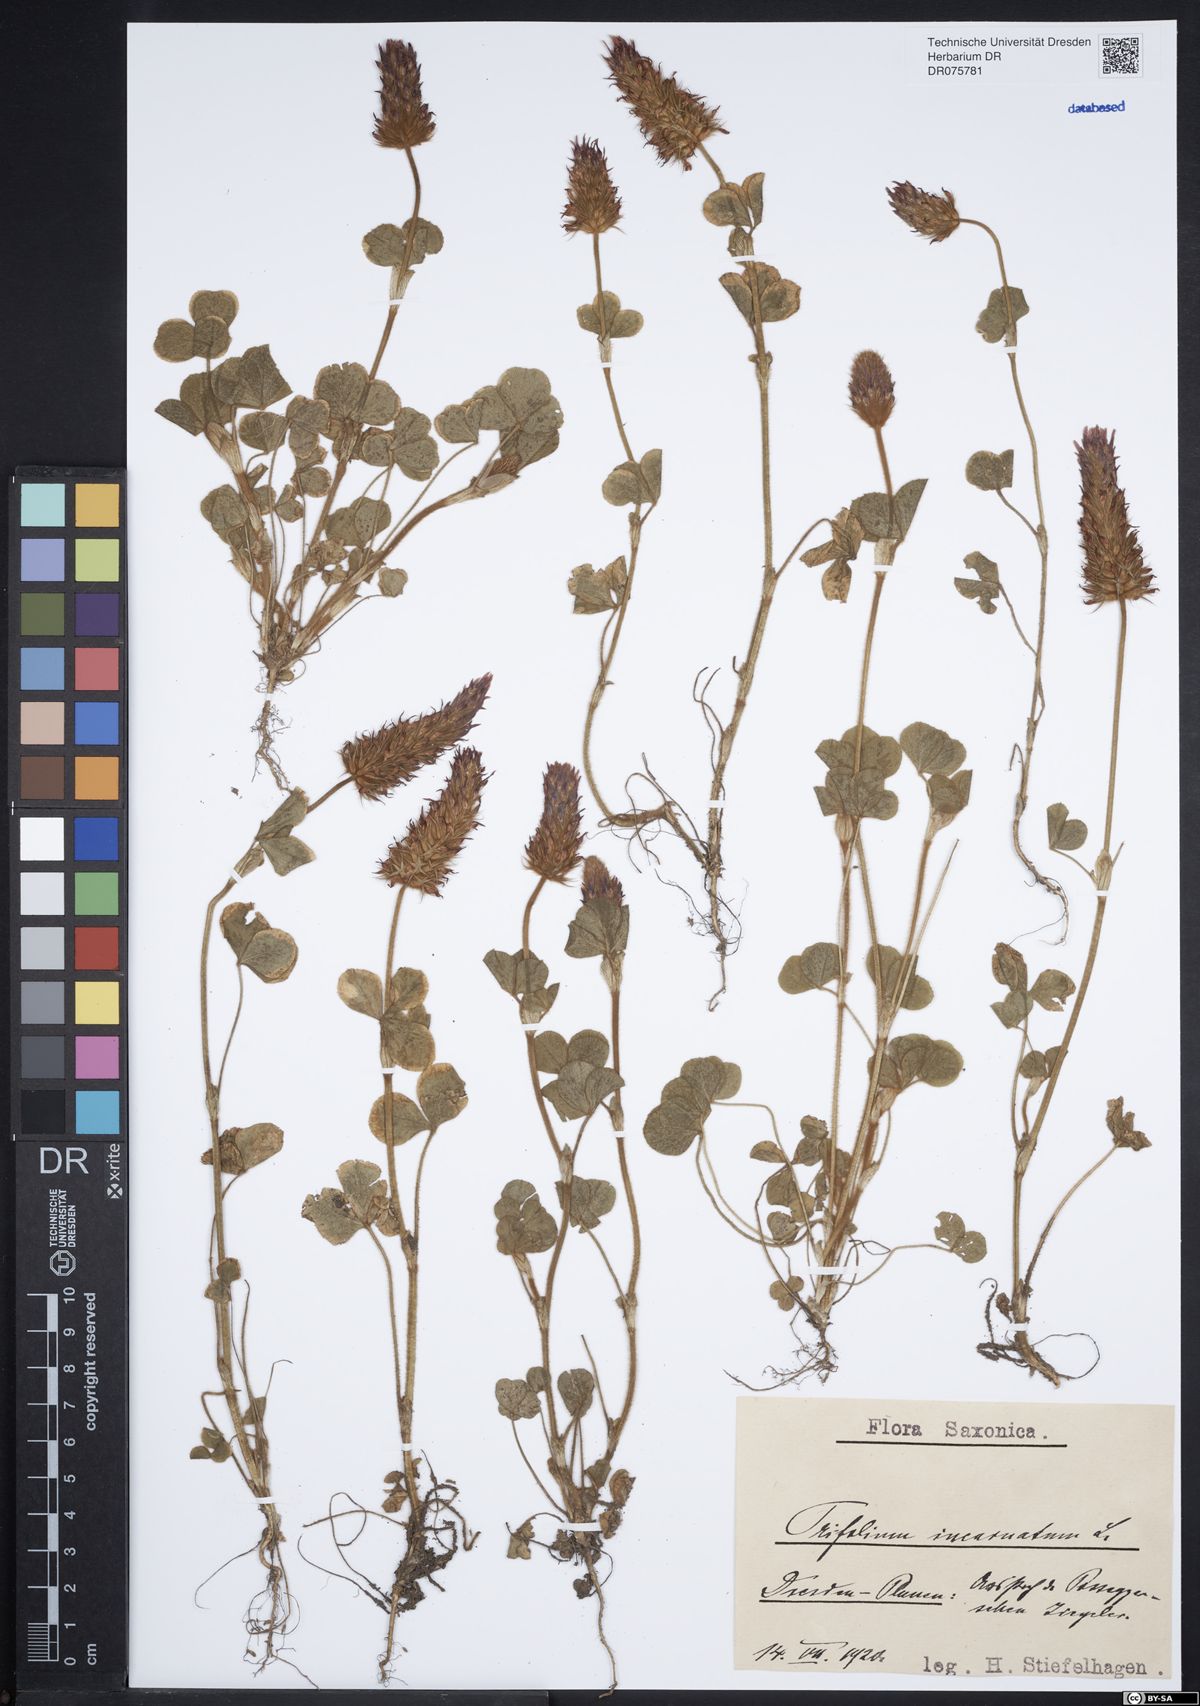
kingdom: Plantae
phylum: Tracheophyta
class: Magnoliopsida
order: Fabales
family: Fabaceae
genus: Trifolium
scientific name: Trifolium incarnatum
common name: Crimson clover
